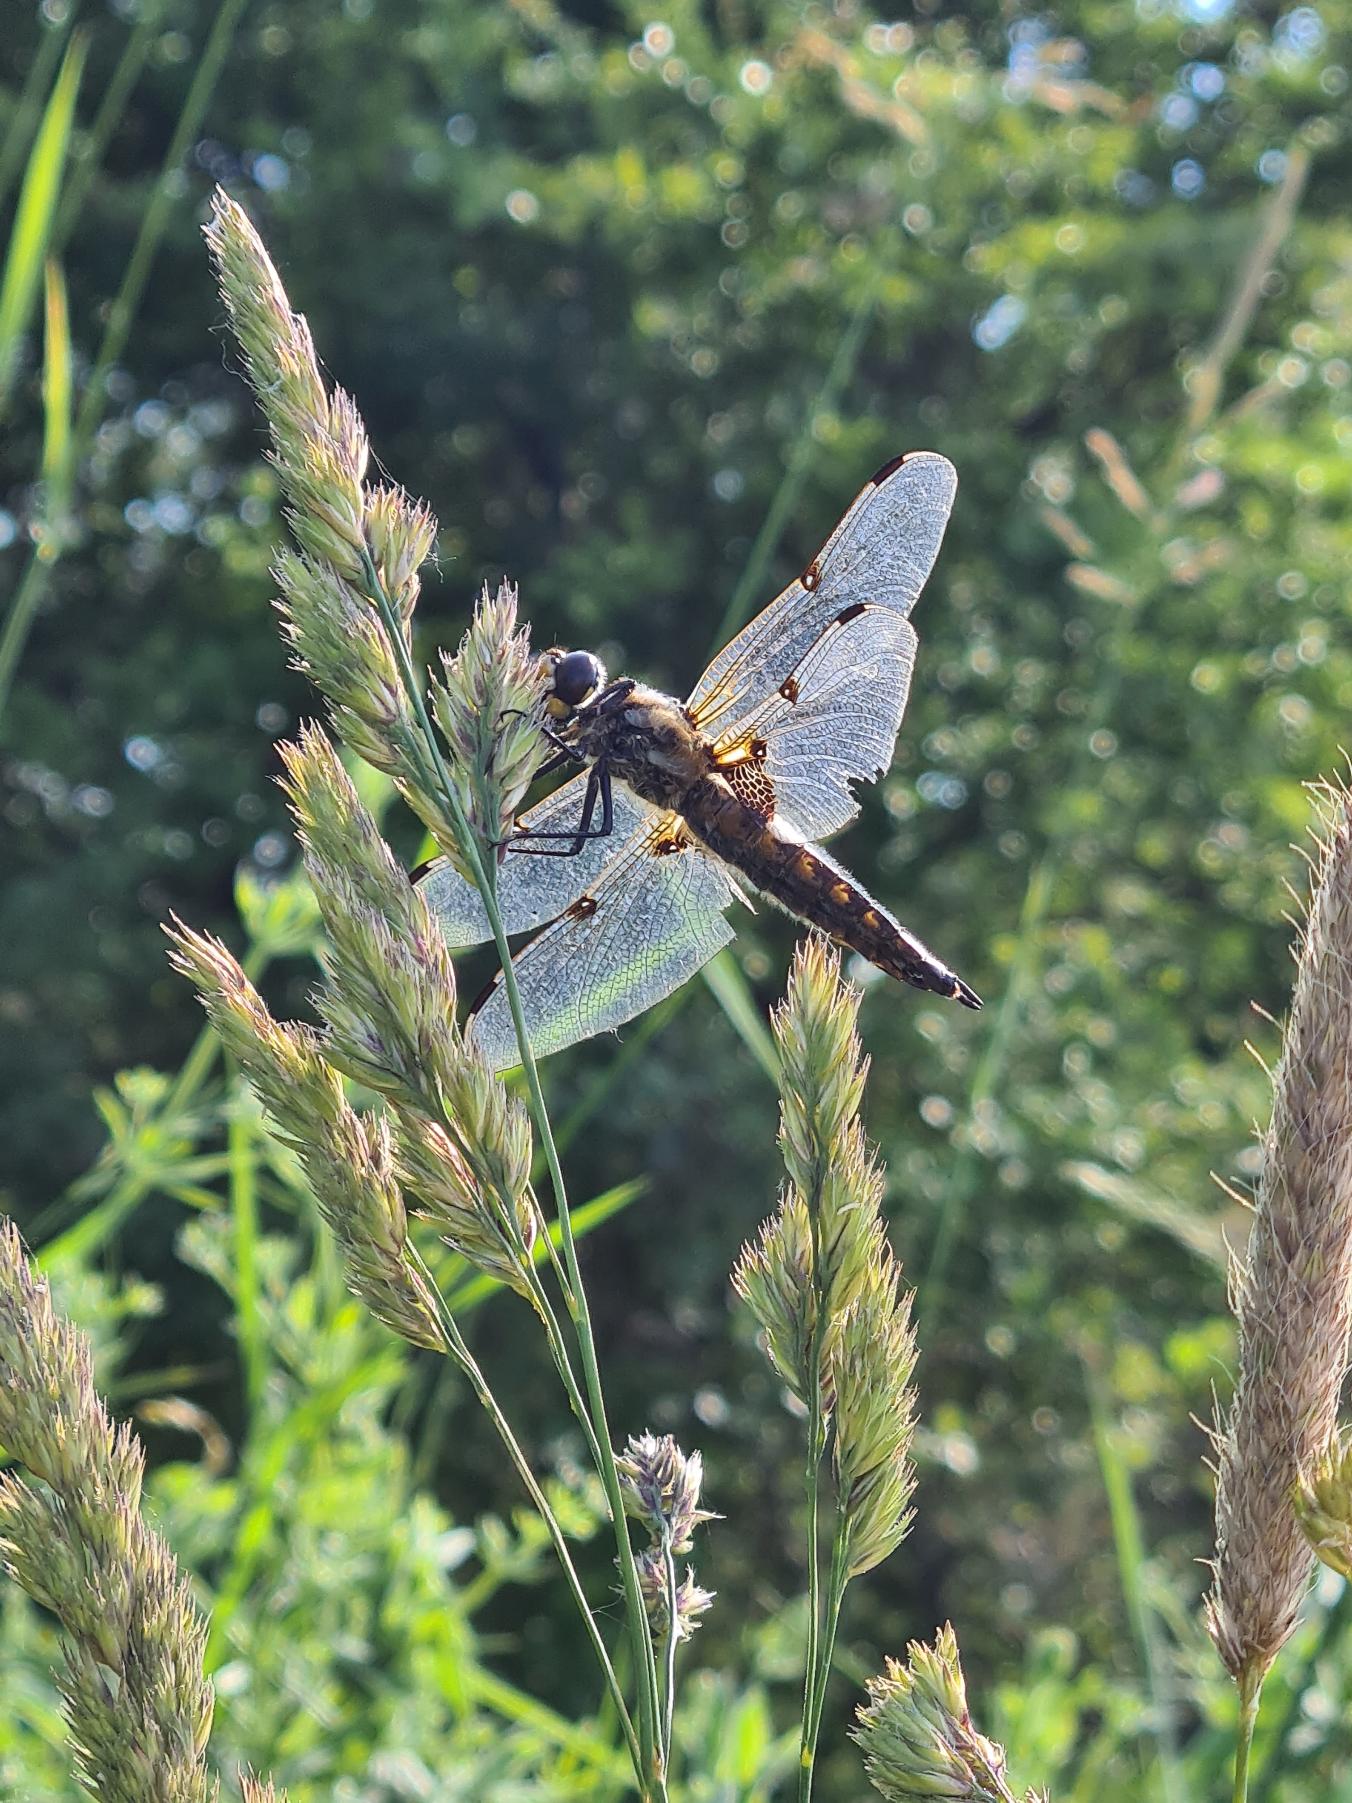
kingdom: Animalia
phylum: Arthropoda
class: Insecta
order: Odonata
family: Libellulidae
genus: Libellula
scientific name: Libellula quadrimaculata
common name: Fireplettet libel
